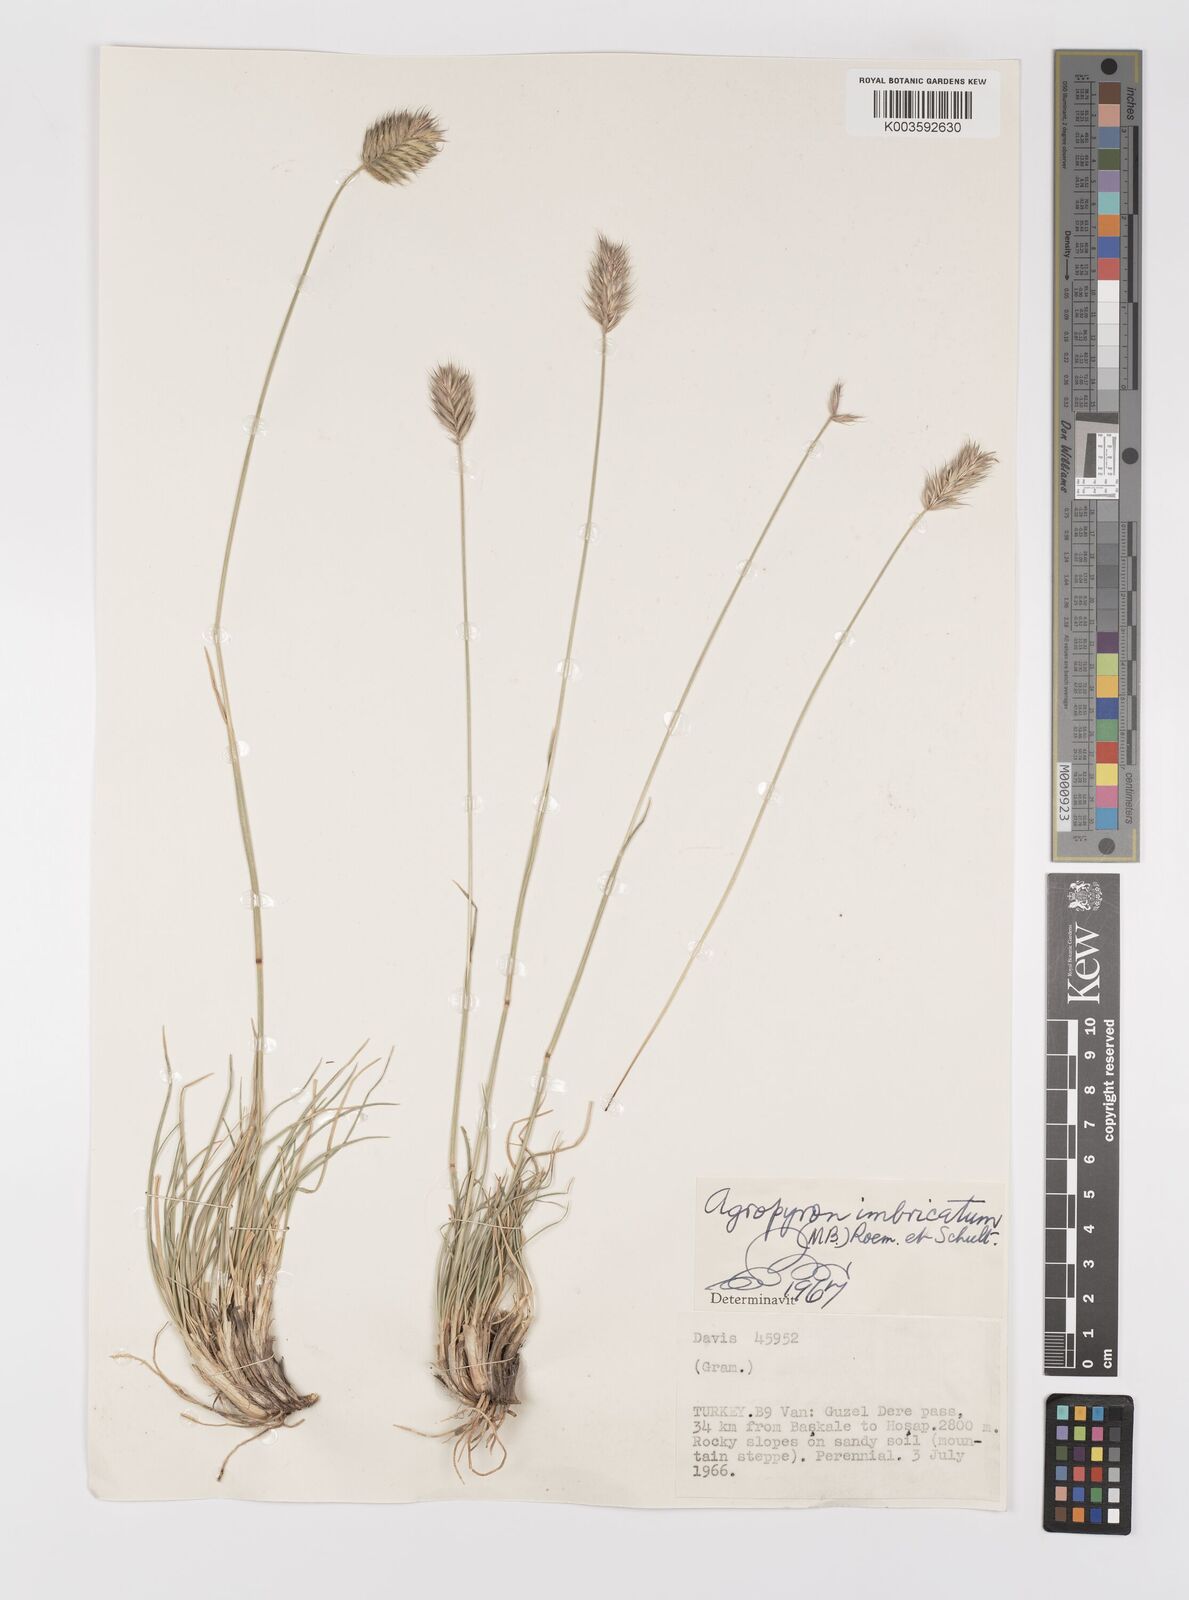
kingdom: Plantae
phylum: Tracheophyta
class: Liliopsida
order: Poales
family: Poaceae
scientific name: Poaceae
